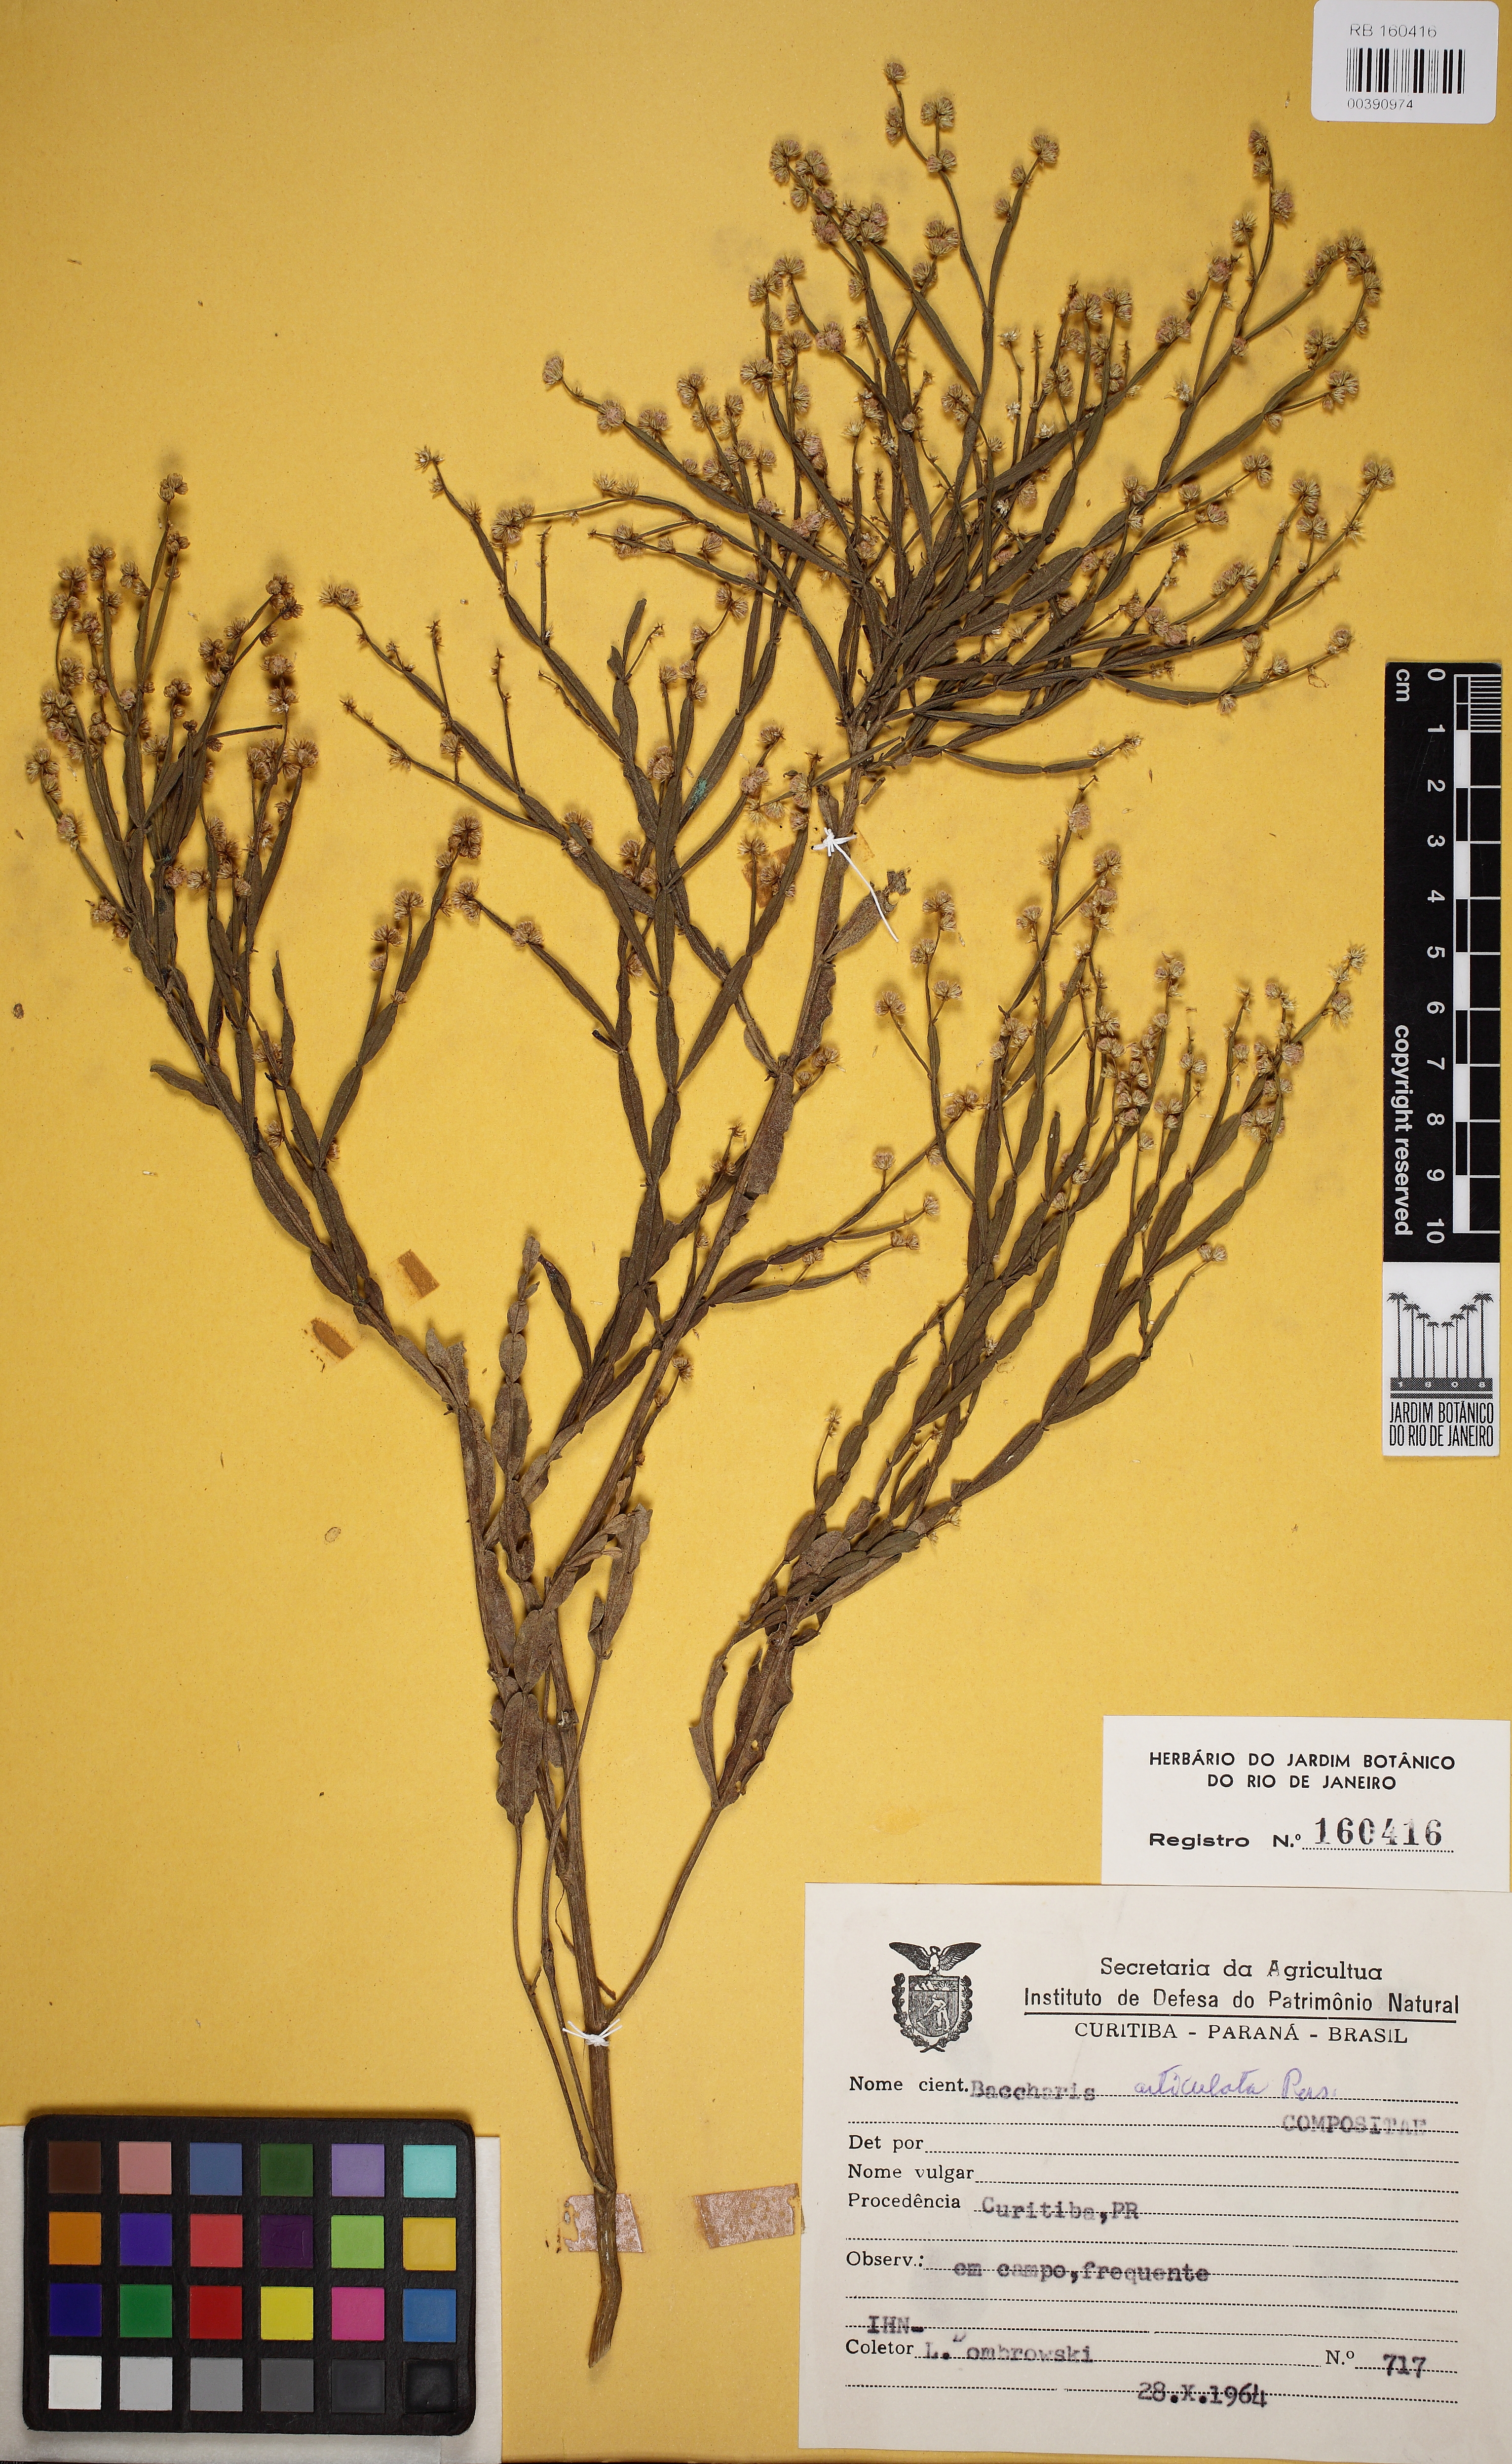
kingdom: Plantae
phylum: Tracheophyta
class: Magnoliopsida
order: Asterales
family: Asteraceae
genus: Baccharis
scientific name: Baccharis articulata
